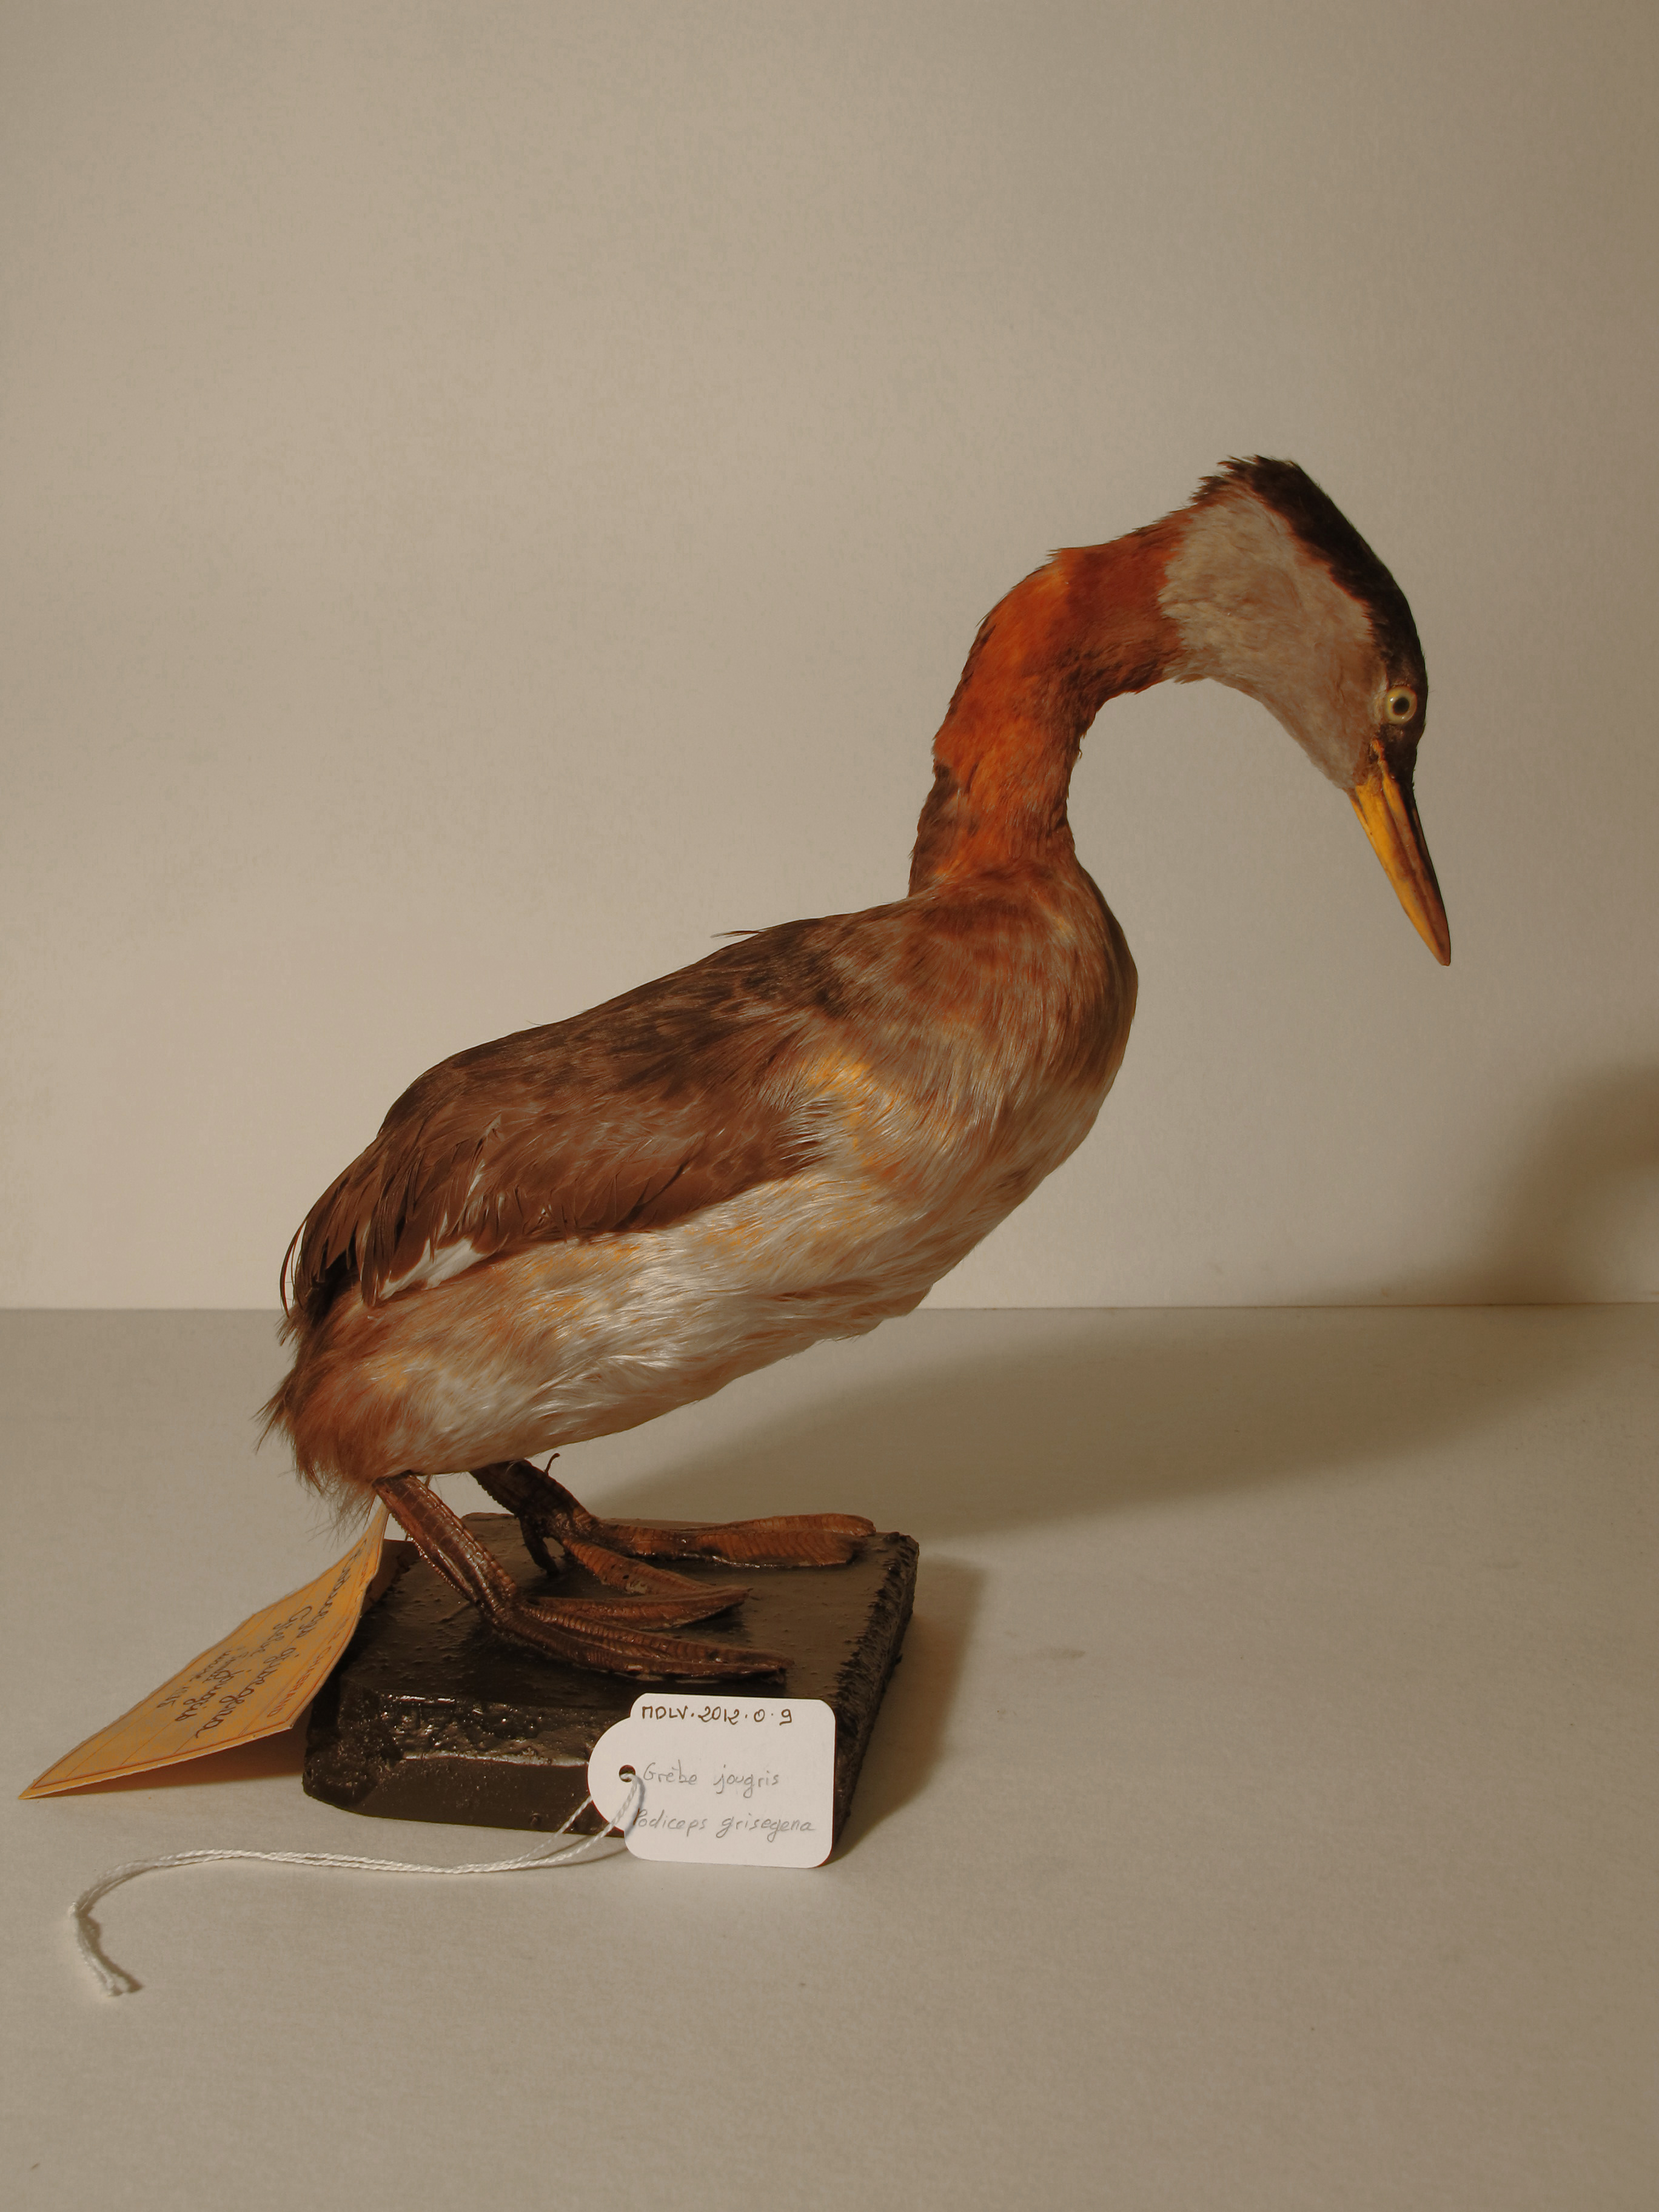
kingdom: Animalia
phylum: Chordata
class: Aves
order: Podicipediformes
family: Podicipedidae
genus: Podiceps
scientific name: Podiceps grisegena
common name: Red-necked Grebe
